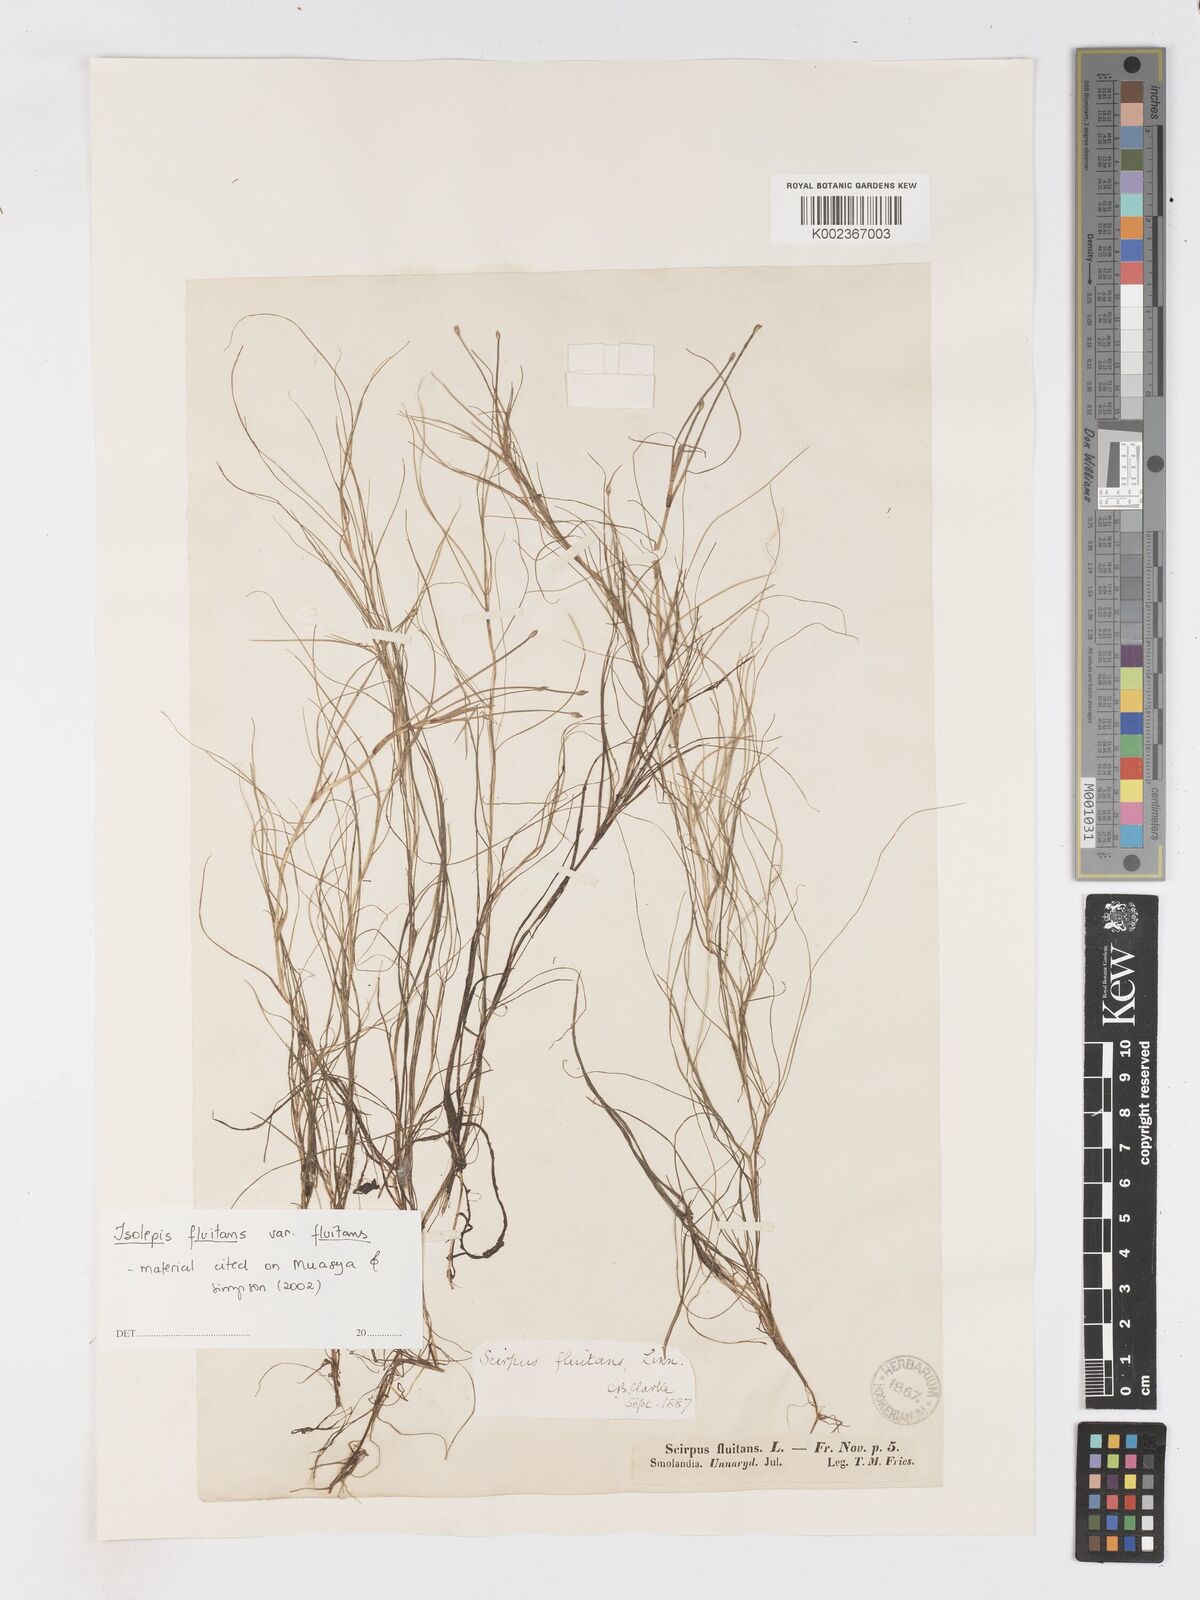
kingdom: Plantae
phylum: Tracheophyta
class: Liliopsida
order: Poales
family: Cyperaceae
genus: Isolepis
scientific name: Isolepis fluitans
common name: Floating club-rush
